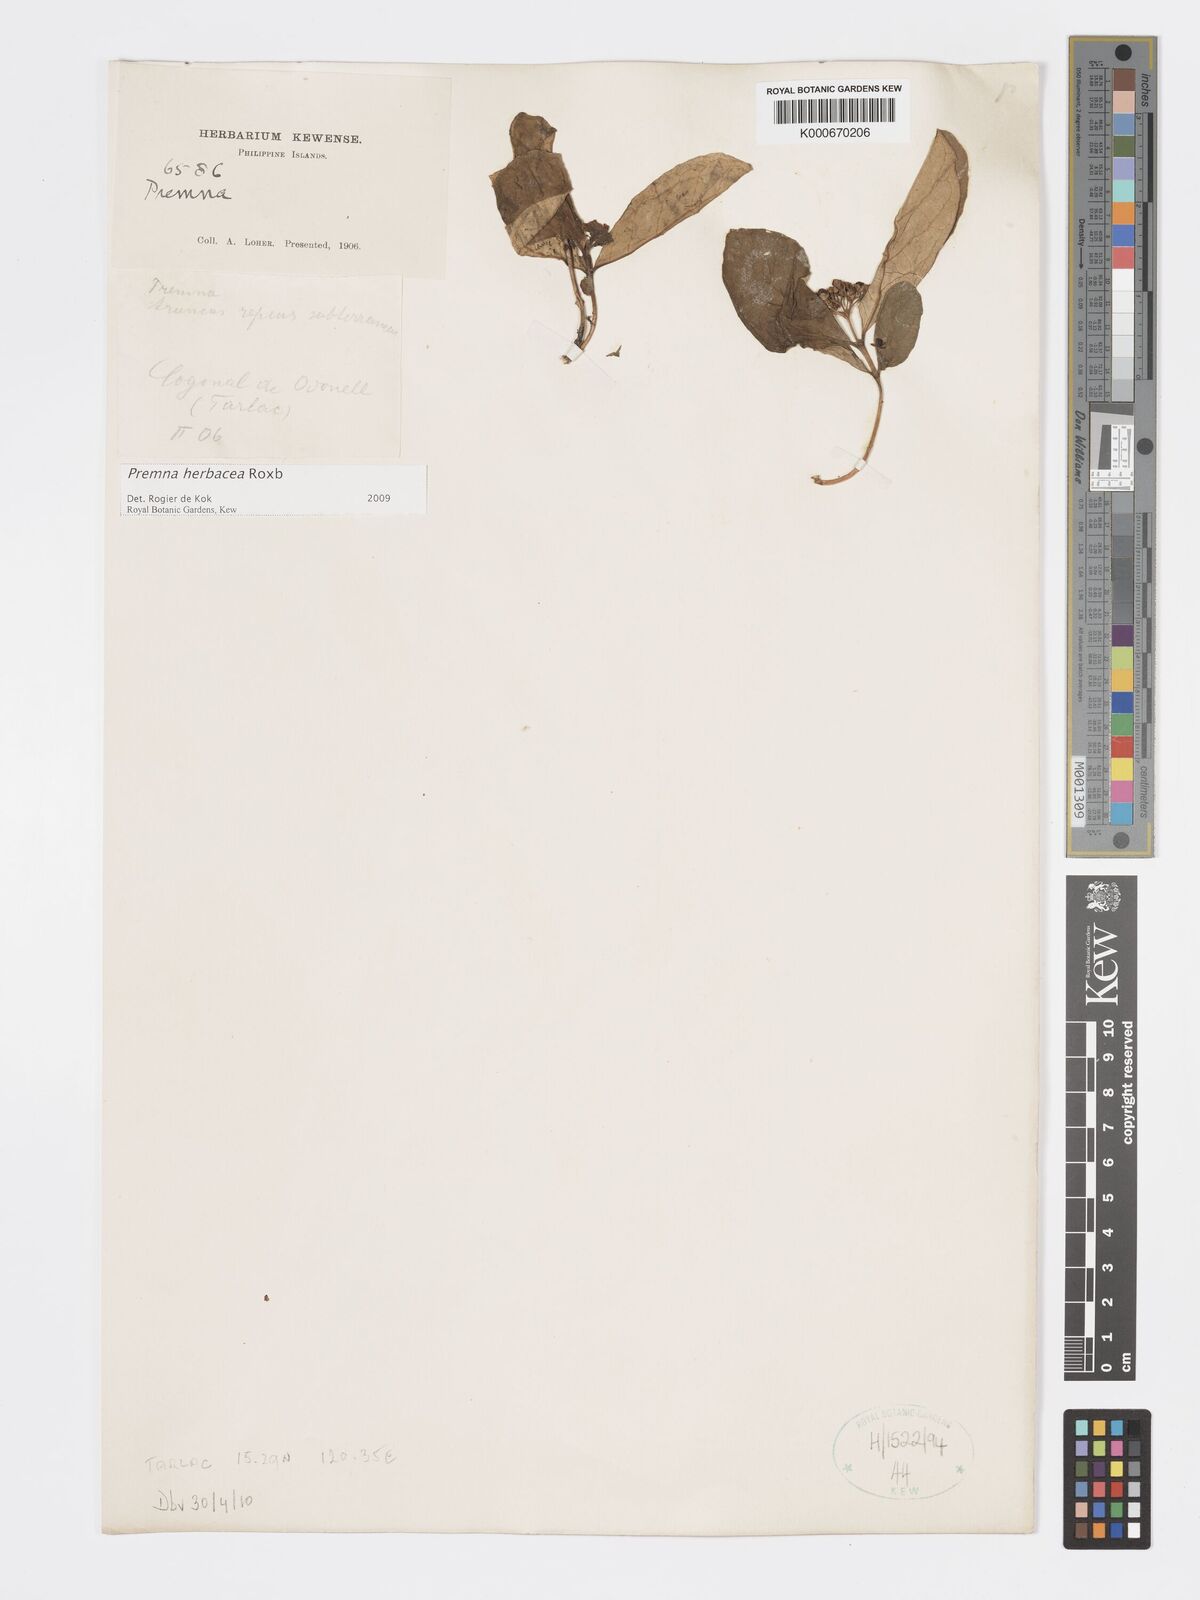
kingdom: Plantae
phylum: Tracheophyta
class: Magnoliopsida
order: Lamiales
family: Lamiaceae
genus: Premna
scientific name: Premna herbacea
